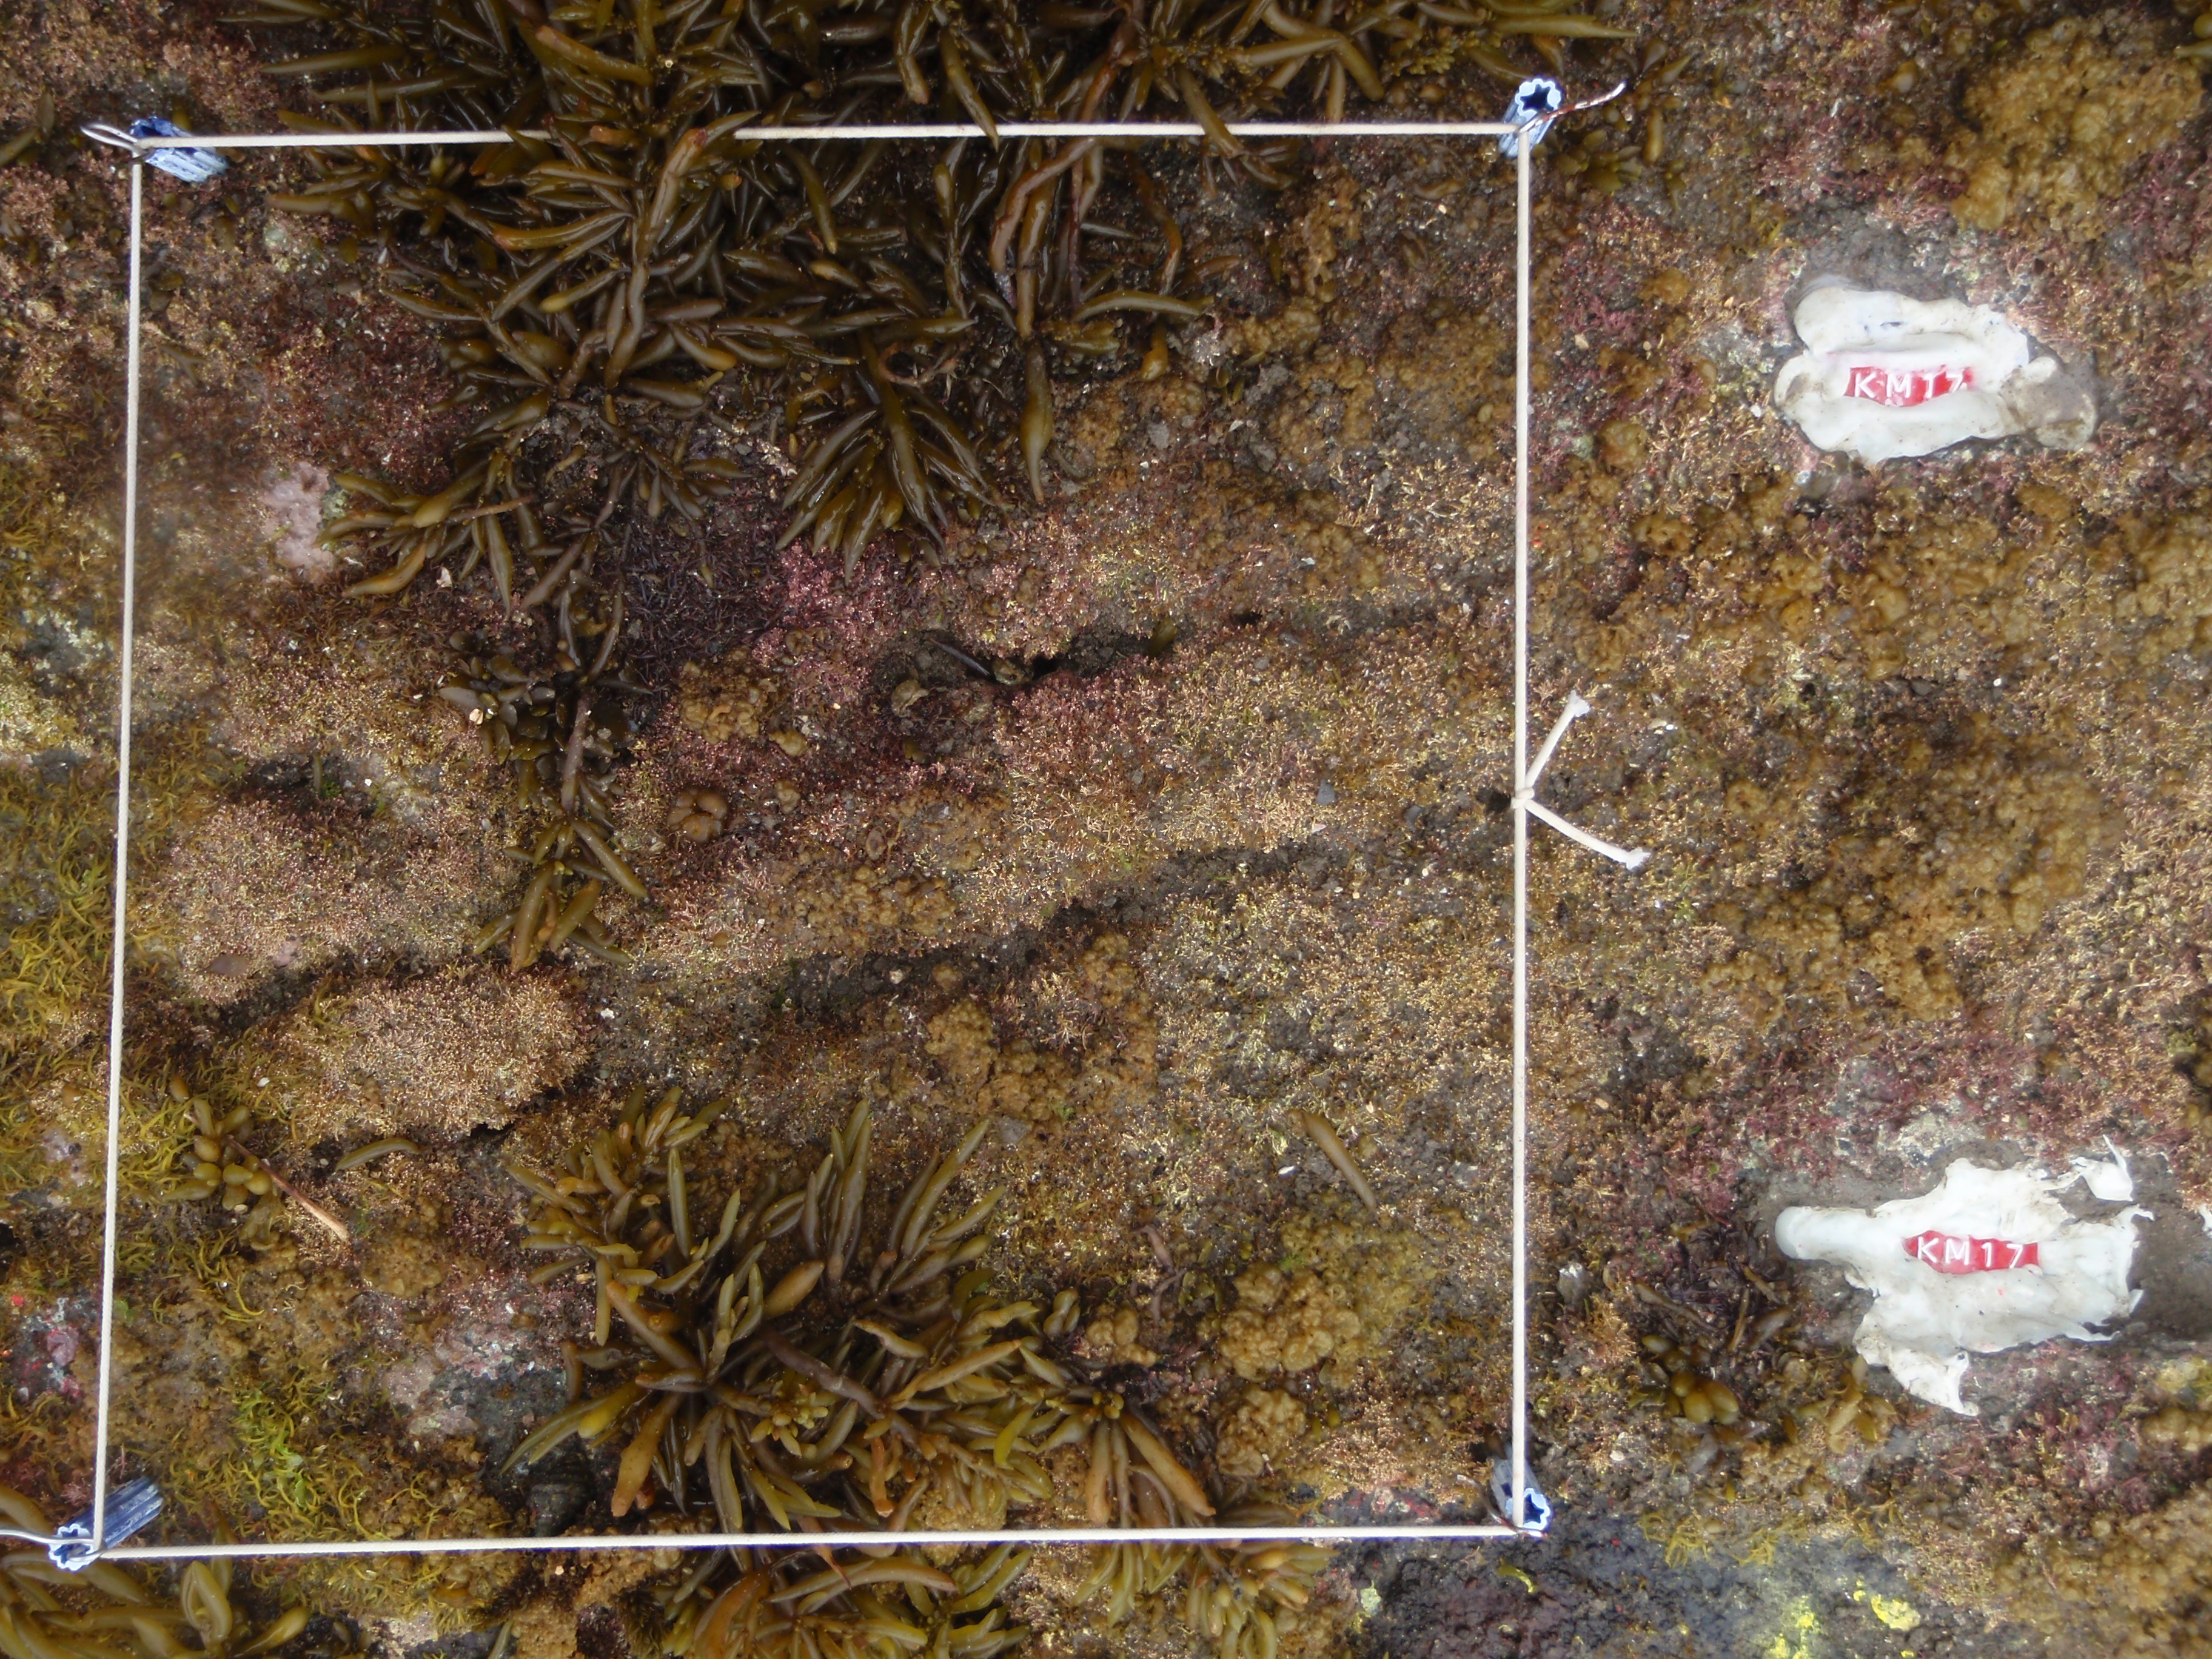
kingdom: Chromista
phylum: Ochrophyta
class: Phaeophyceae
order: Fucales
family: Sargassaceae
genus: Sargassum
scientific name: Sargassum fusiforme
